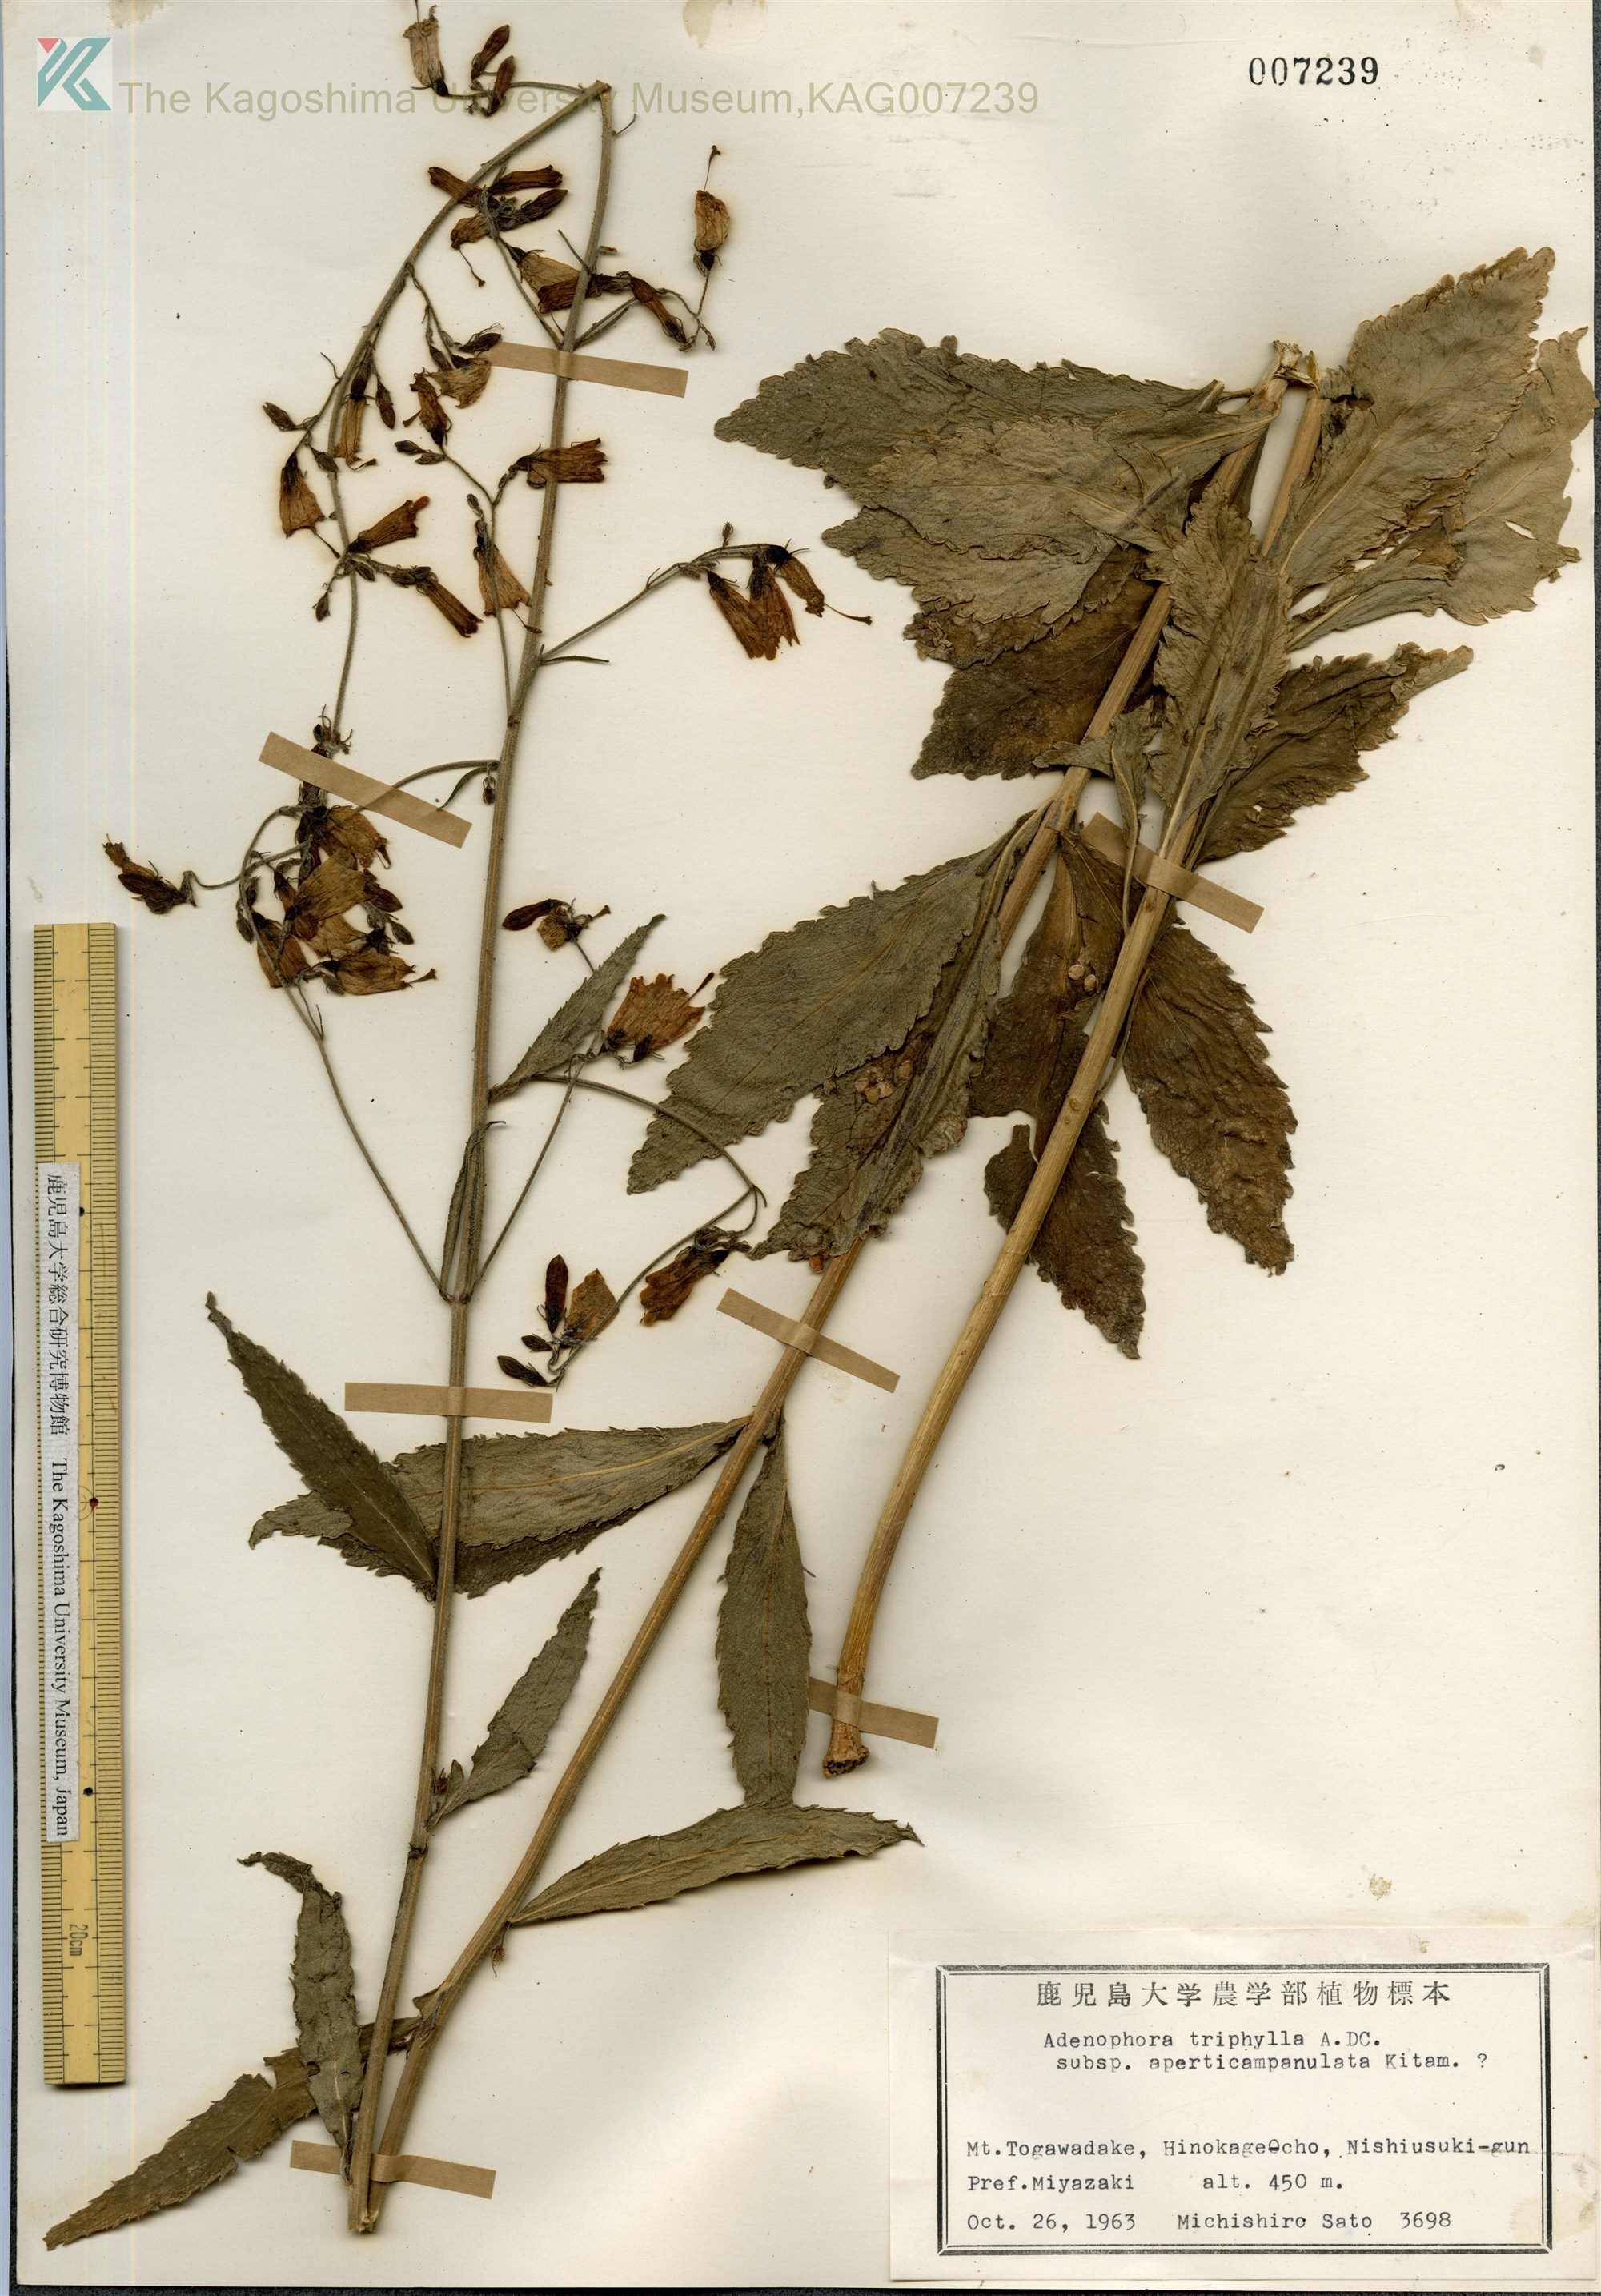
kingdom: Plantae
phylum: Tracheophyta
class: Magnoliopsida
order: Asterales
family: Campanulaceae
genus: Adenophora
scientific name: Adenophora triphylla
